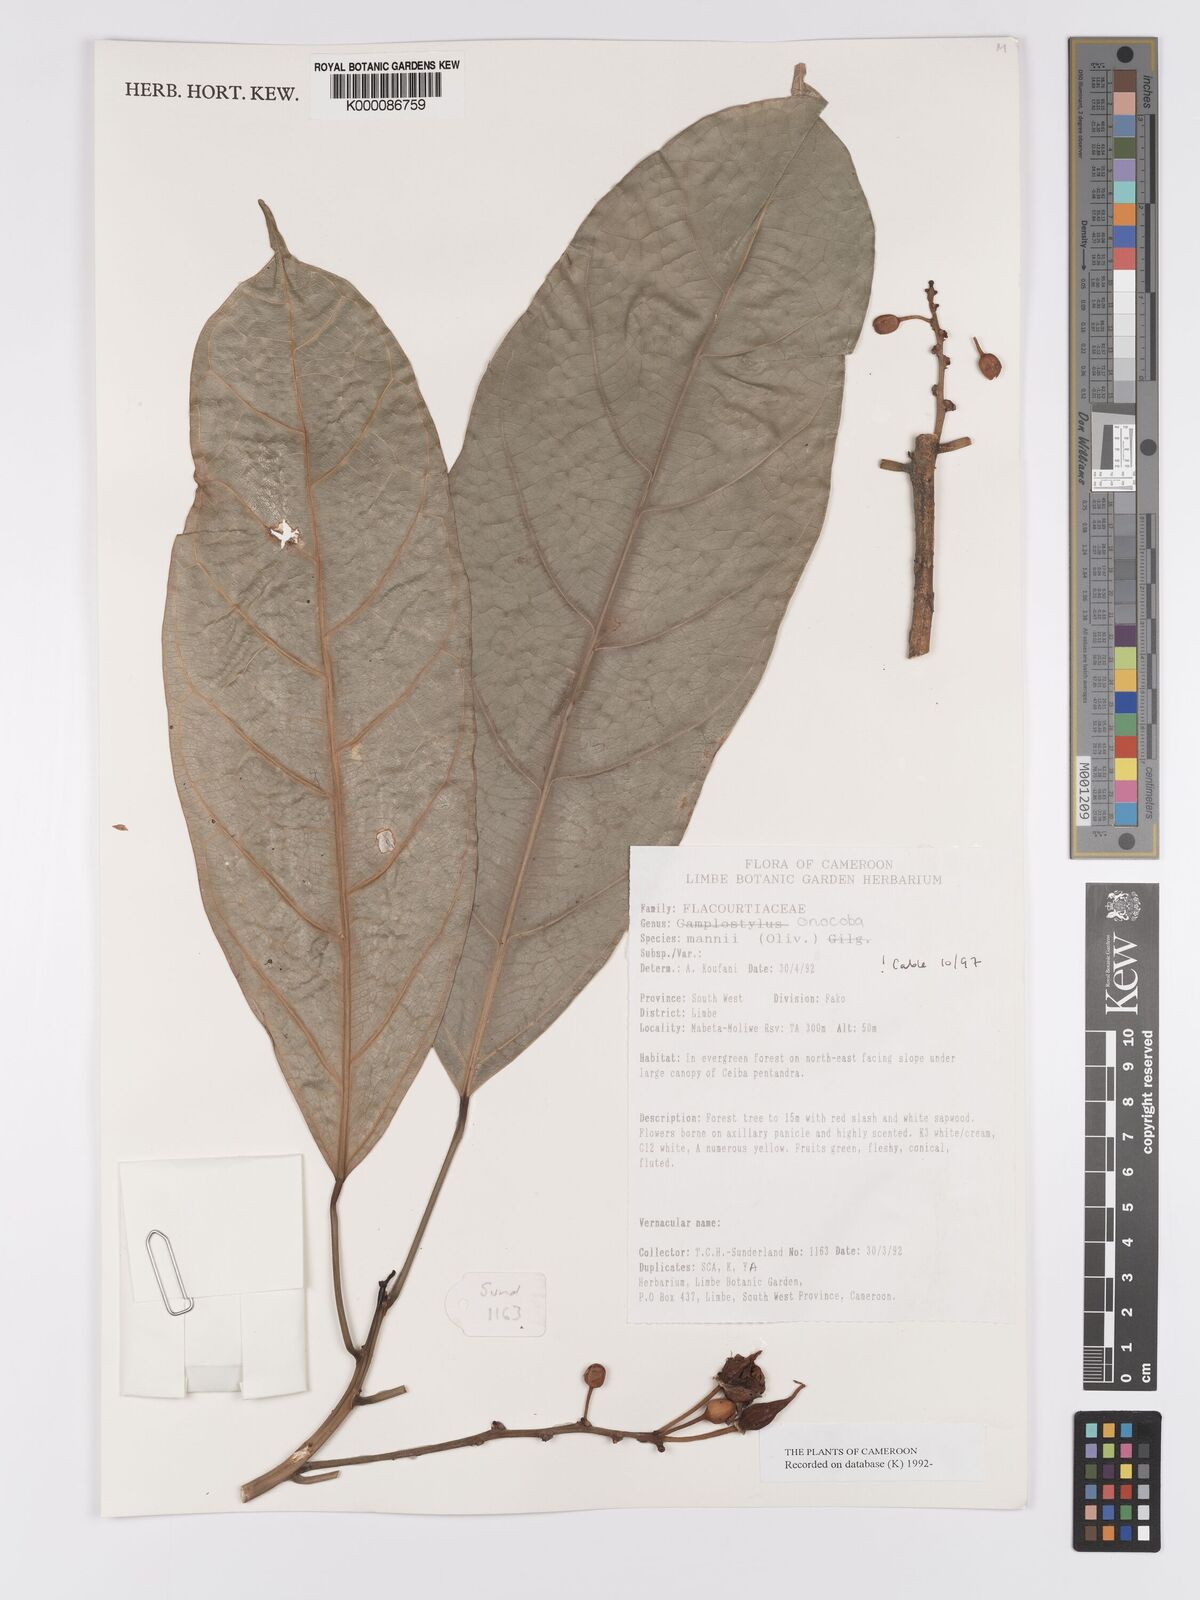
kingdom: Plantae
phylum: Tracheophyta
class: Magnoliopsida
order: Malpighiales
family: Achariaceae
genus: Camptostylus
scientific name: Camptostylus mannii
